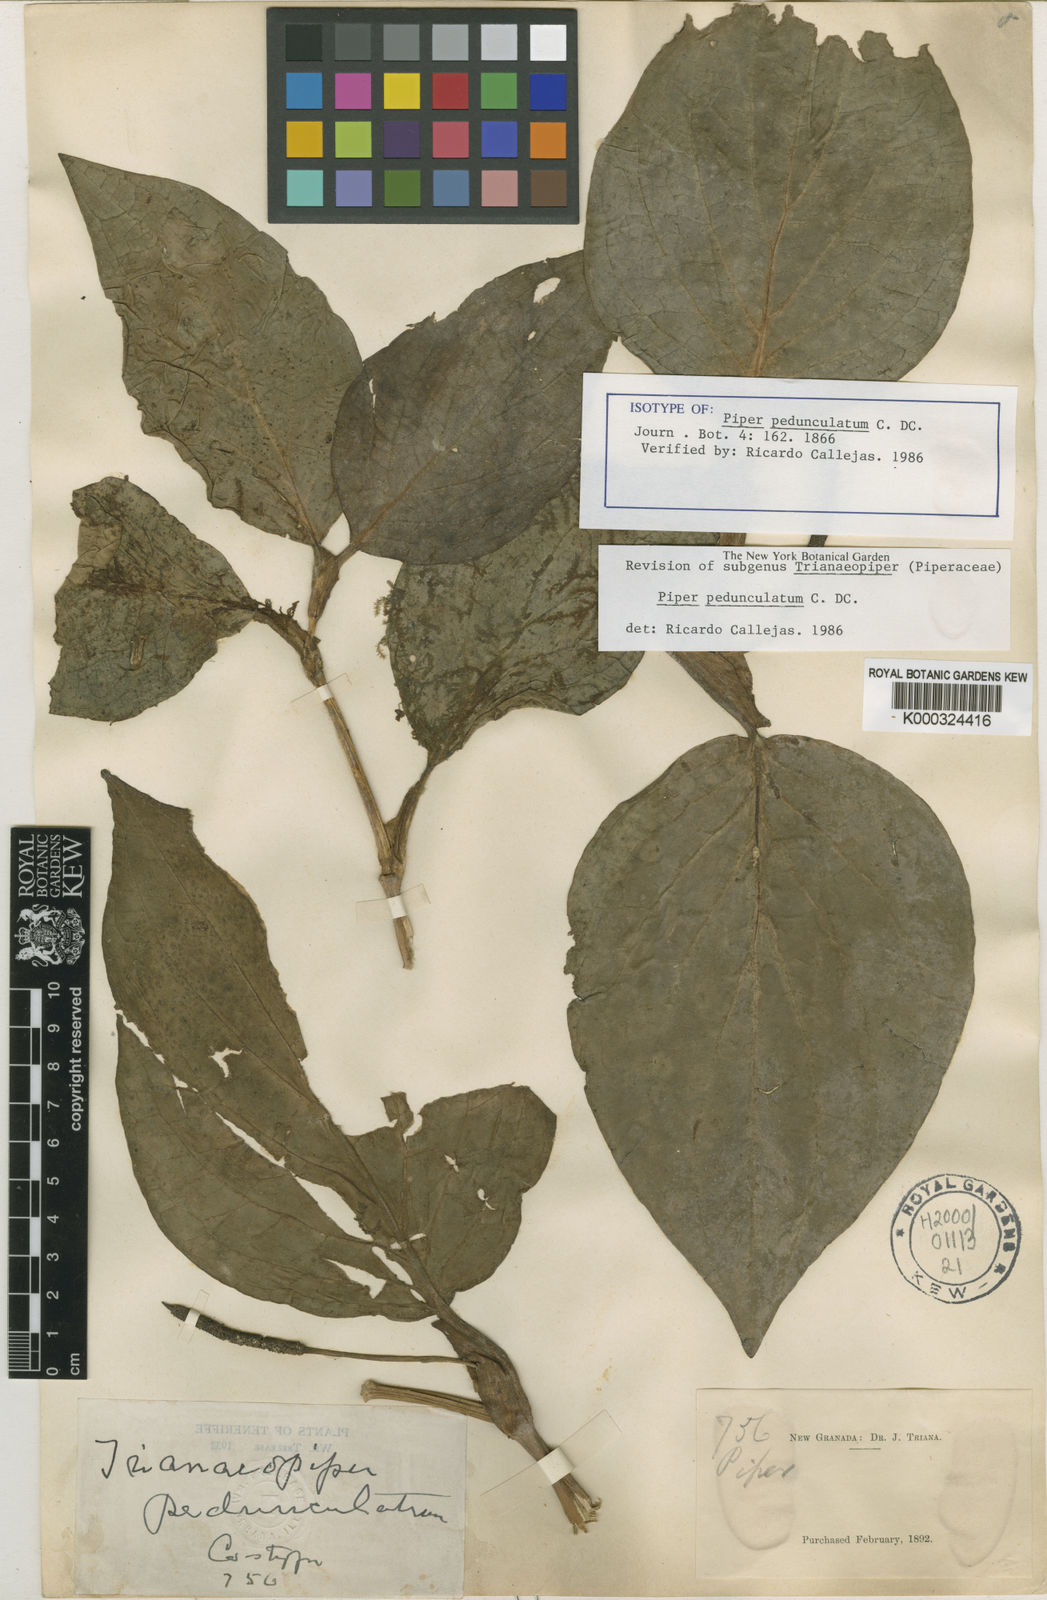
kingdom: Plantae
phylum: Tracheophyta
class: Magnoliopsida
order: Piperales
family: Piperaceae
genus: Piper
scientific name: Piper pedunculatum
